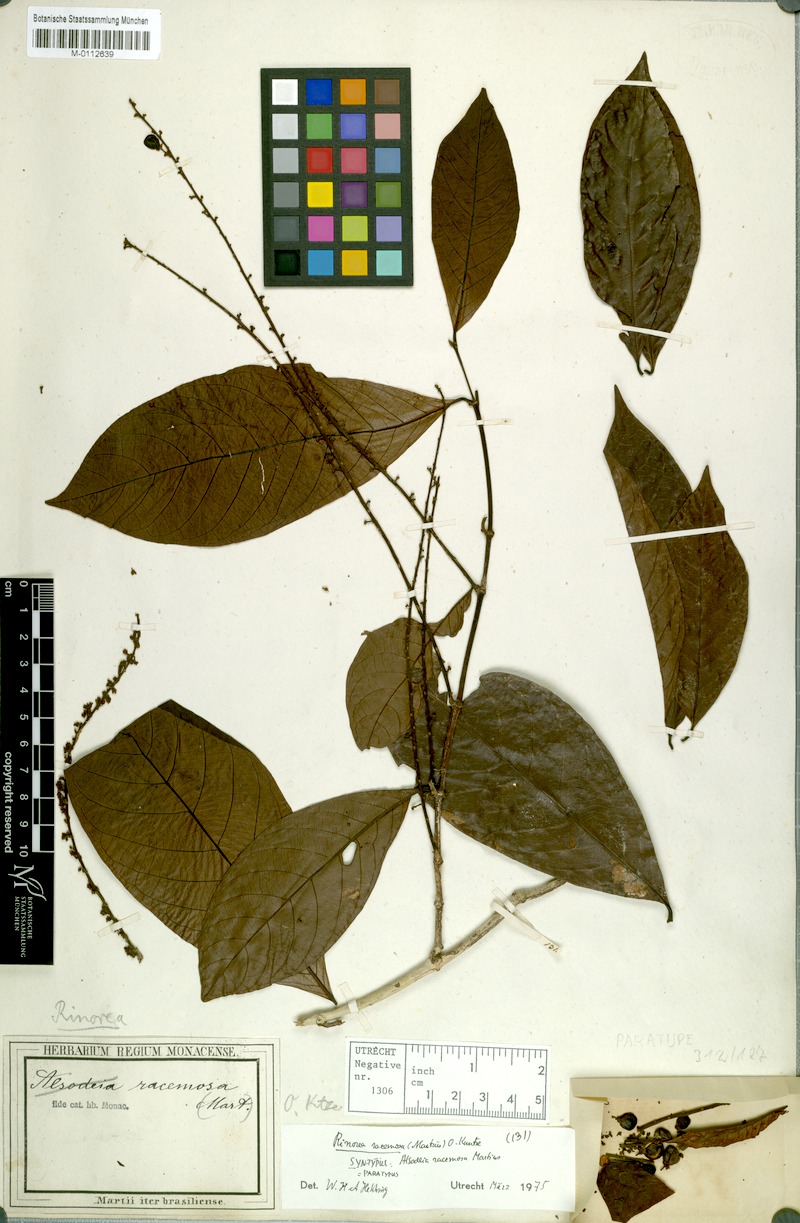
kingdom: Plantae
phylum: Tracheophyta
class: Magnoliopsida
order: Malpighiales
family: Violaceae
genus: Rinorea
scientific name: Rinorea racemosa
